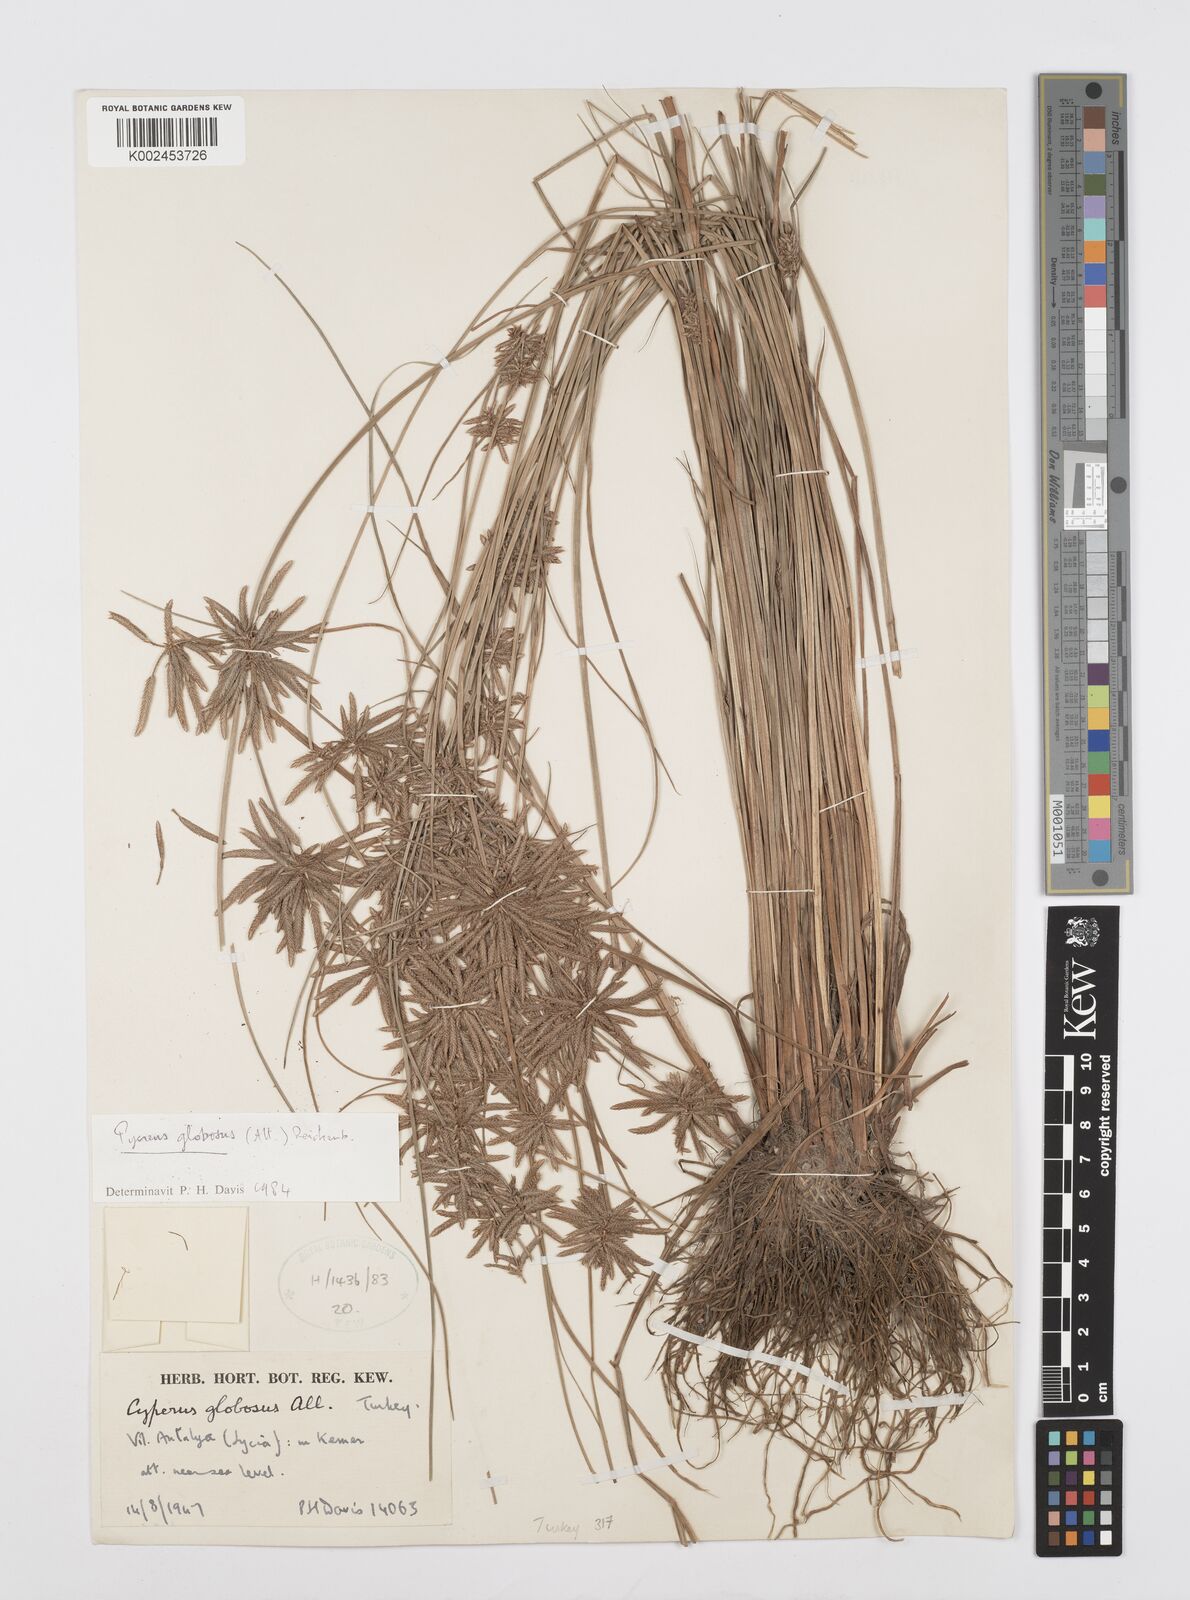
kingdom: Plantae
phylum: Tracheophyta
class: Liliopsida
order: Poales
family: Cyperaceae
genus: Cyperus
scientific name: Cyperus flavidus
